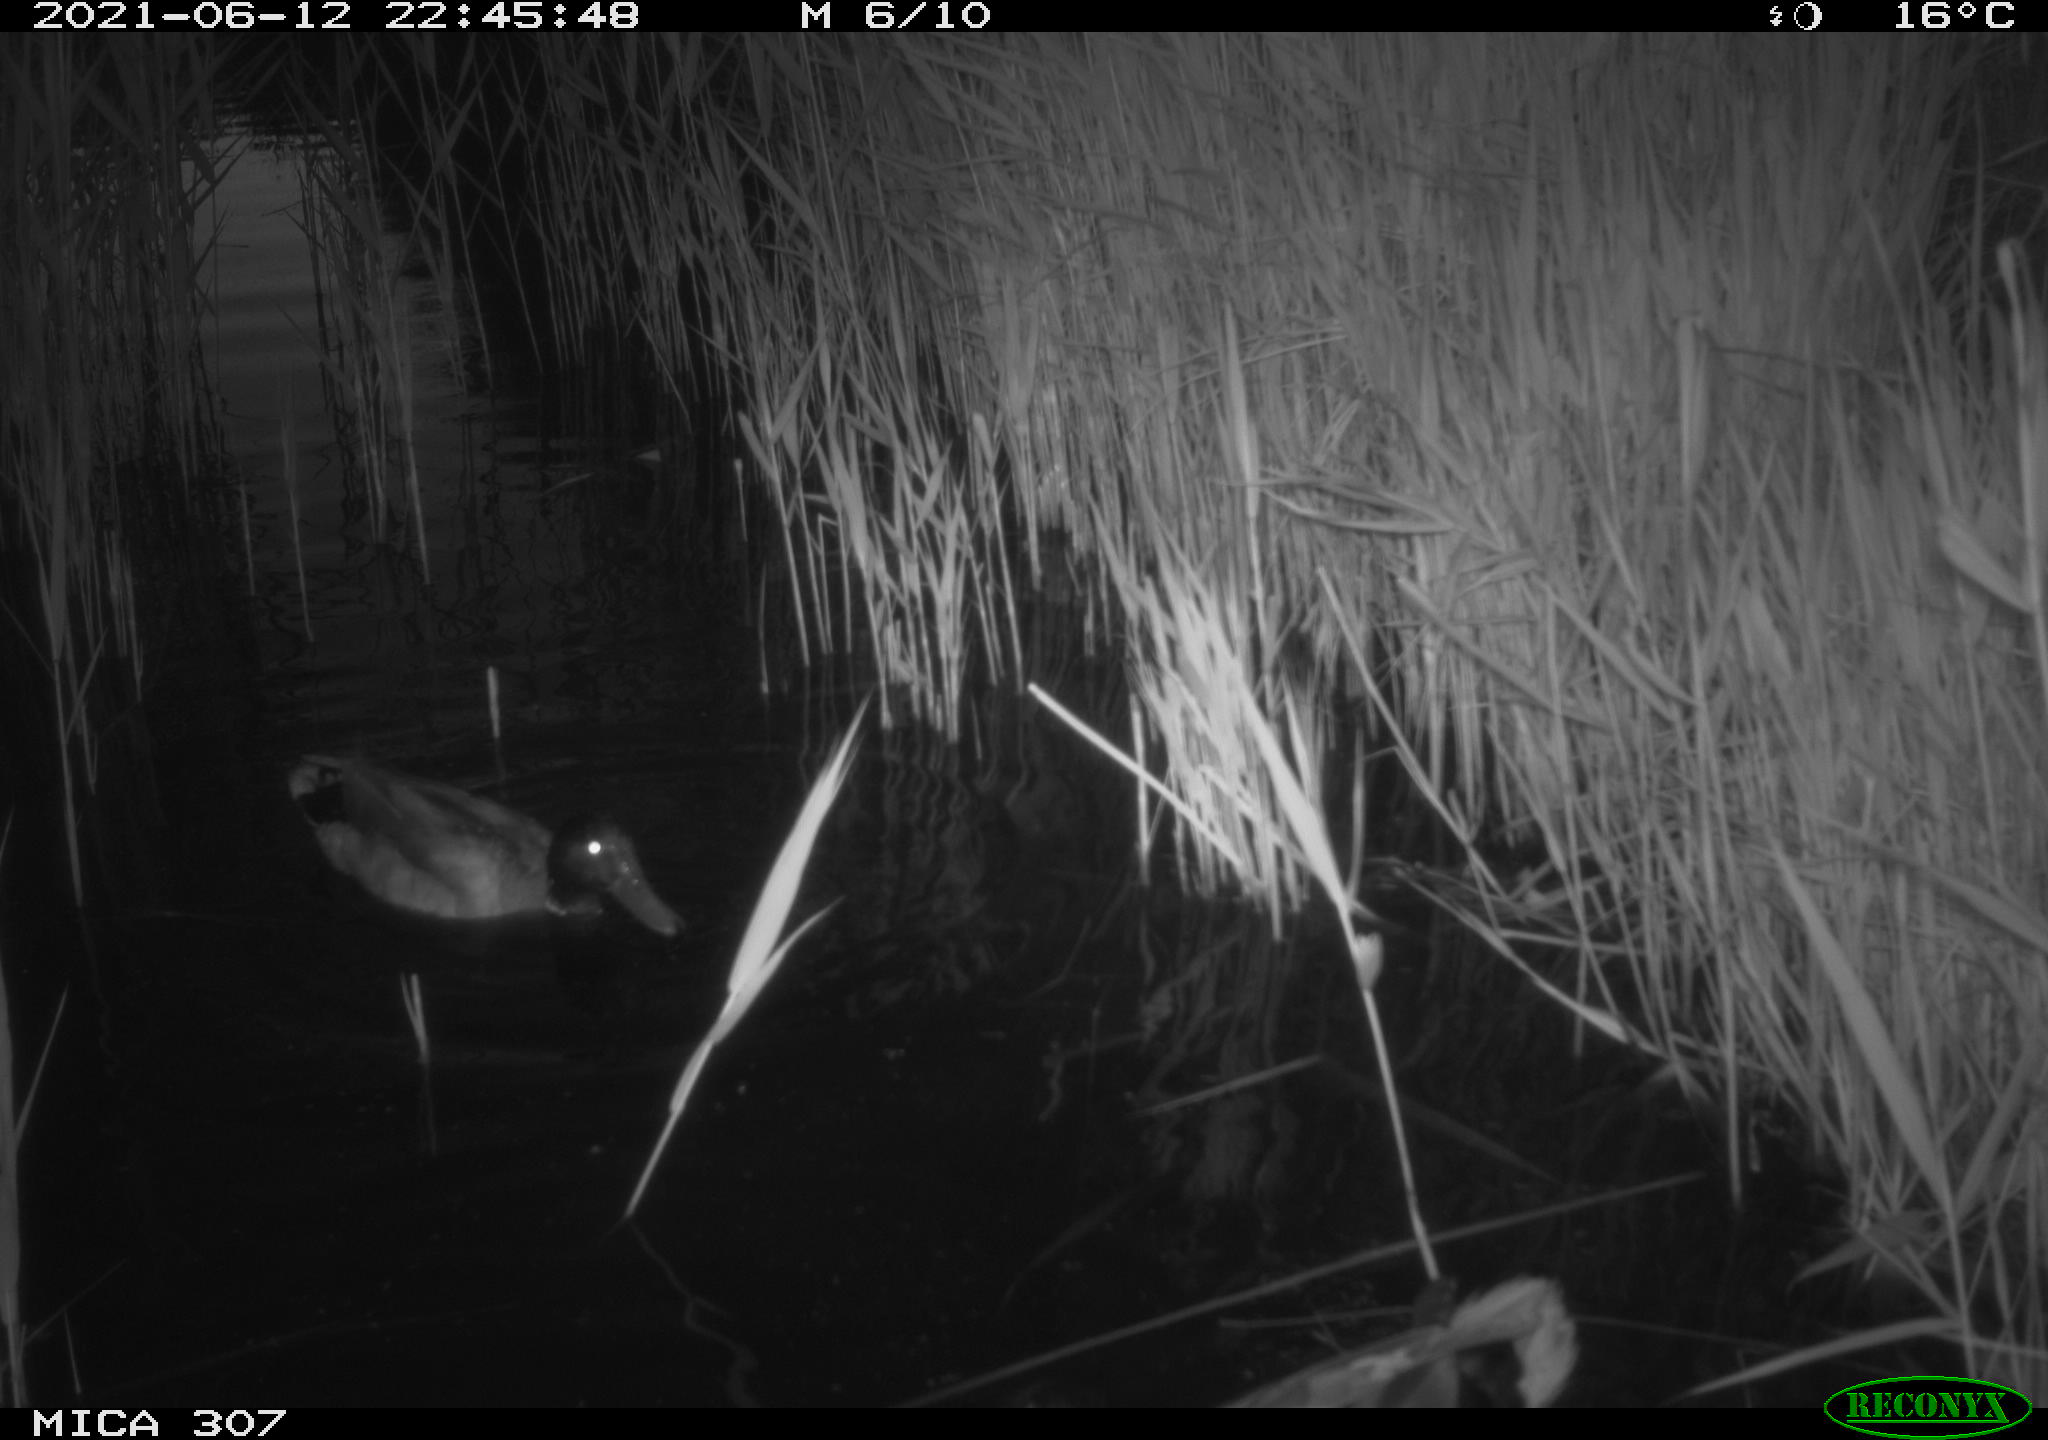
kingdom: Animalia
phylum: Chordata
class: Aves
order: Anseriformes
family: Anatidae
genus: Anas
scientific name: Anas platyrhynchos
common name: Mallard
